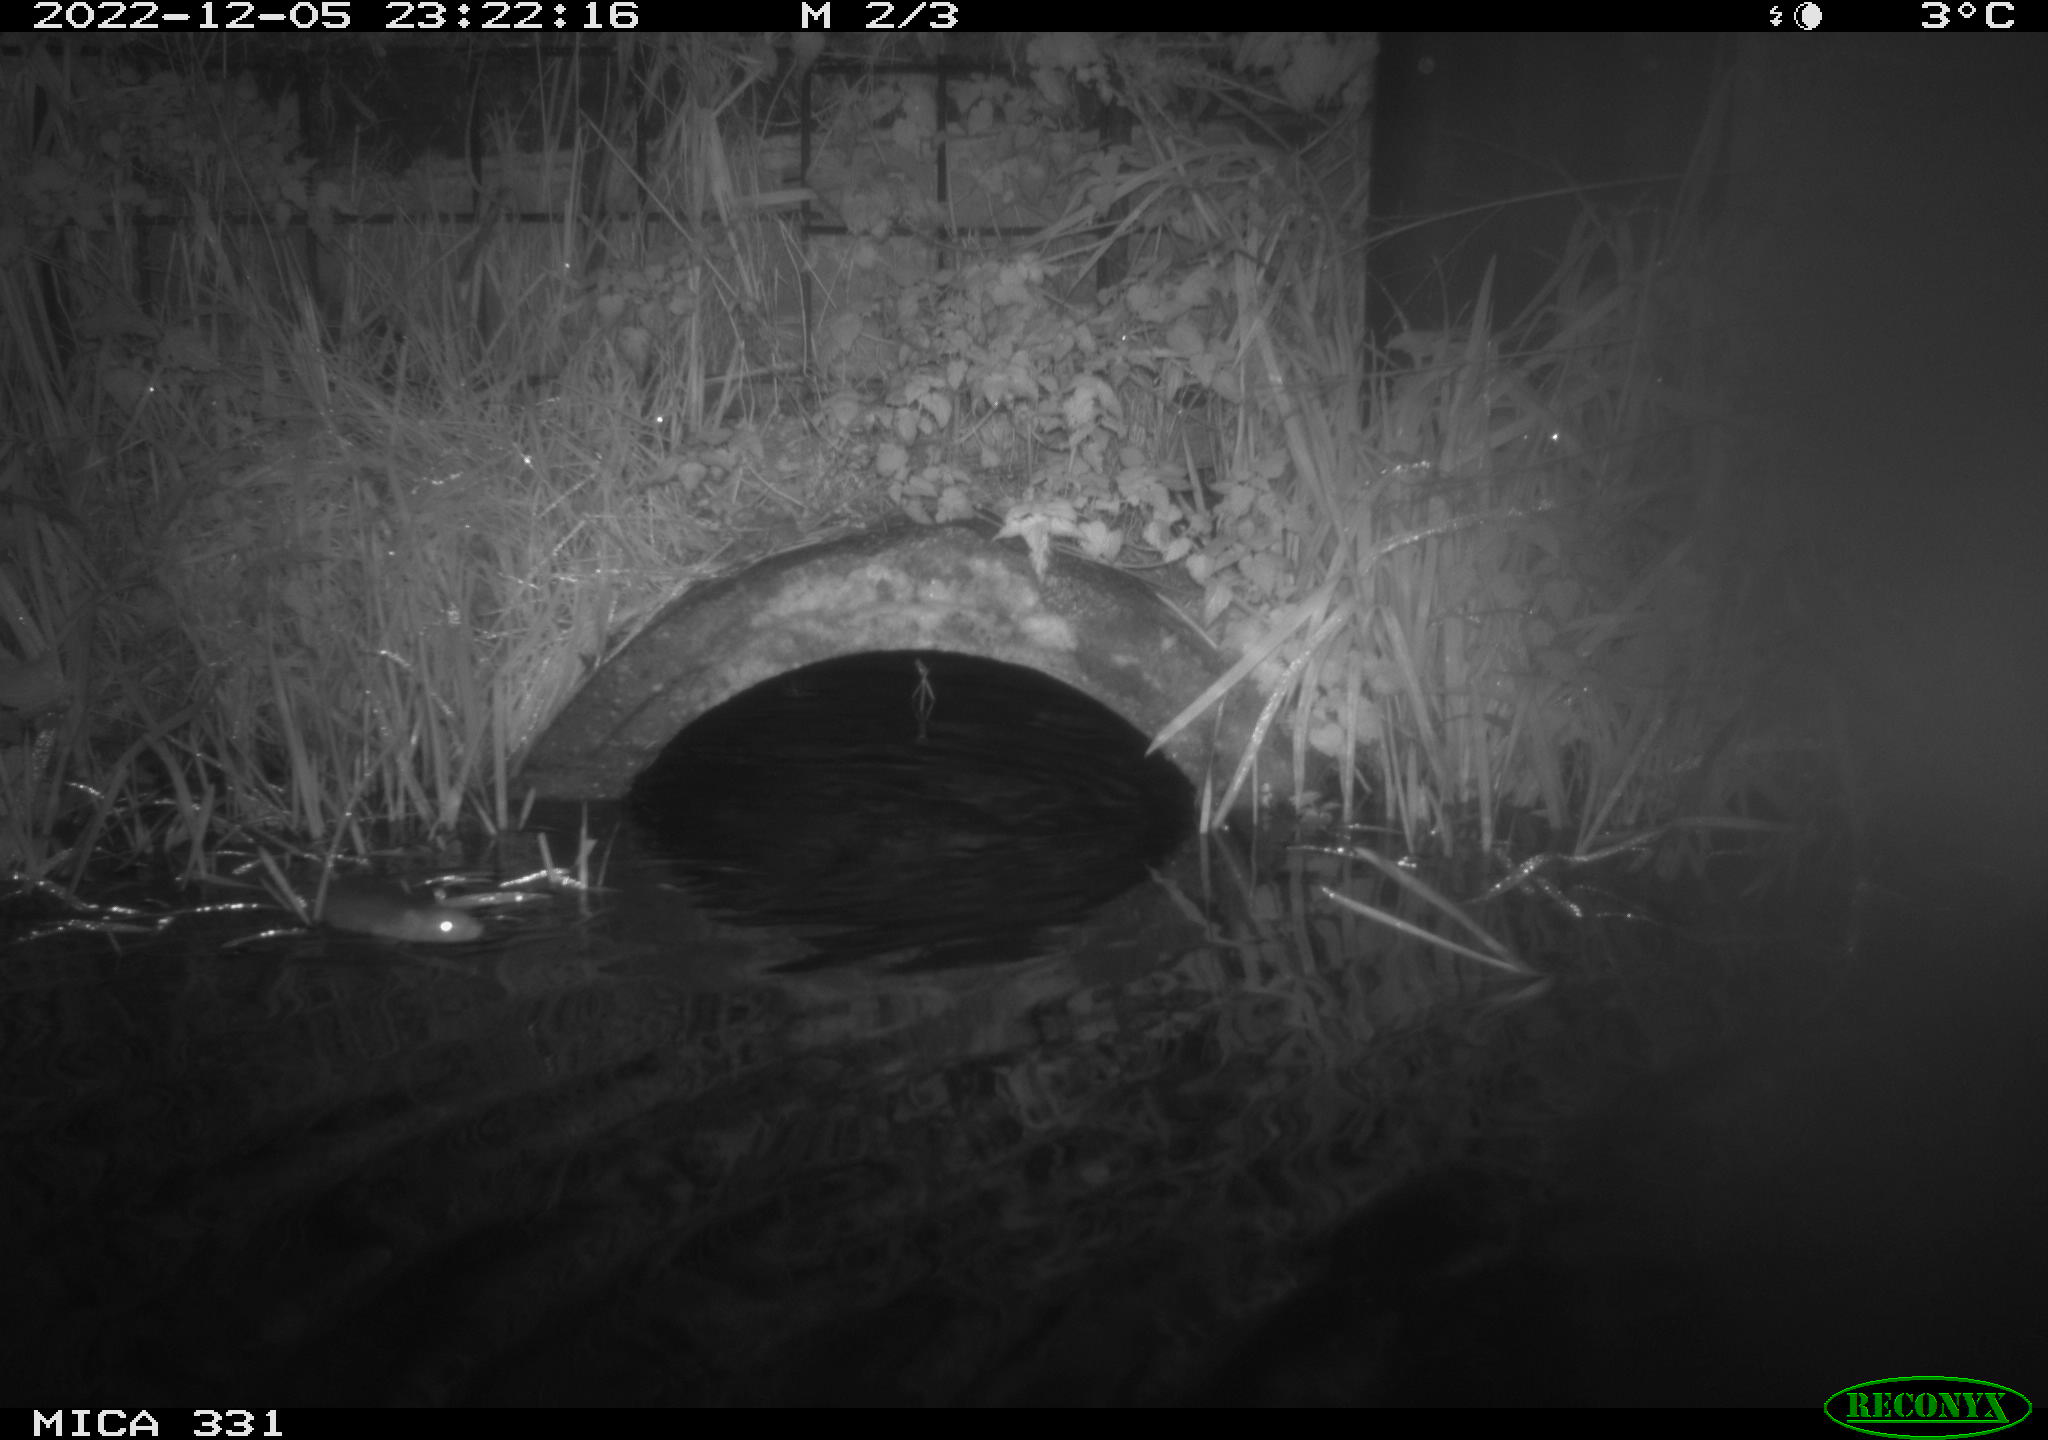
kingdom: Animalia
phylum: Chordata
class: Mammalia
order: Rodentia
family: Muridae
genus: Rattus
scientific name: Rattus norvegicus
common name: Brown rat
